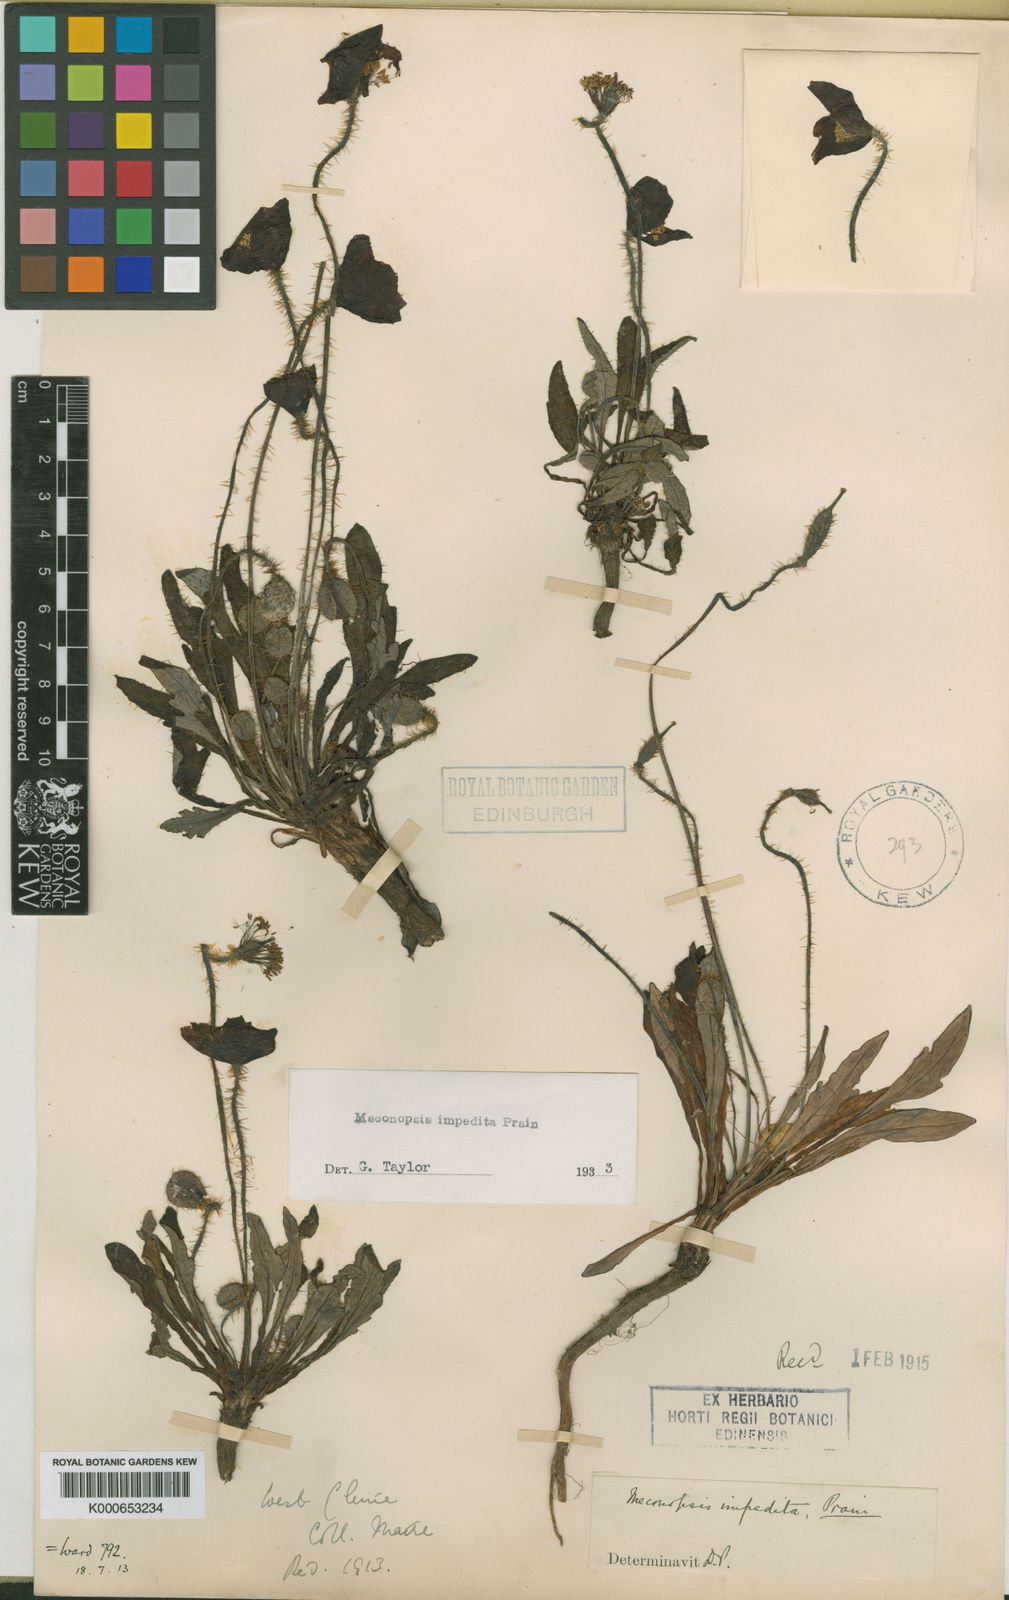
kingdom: Plantae
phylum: Tracheophyta
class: Magnoliopsida
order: Ranunculales
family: Papaveraceae
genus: Meconopsis
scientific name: Meconopsis impedita
